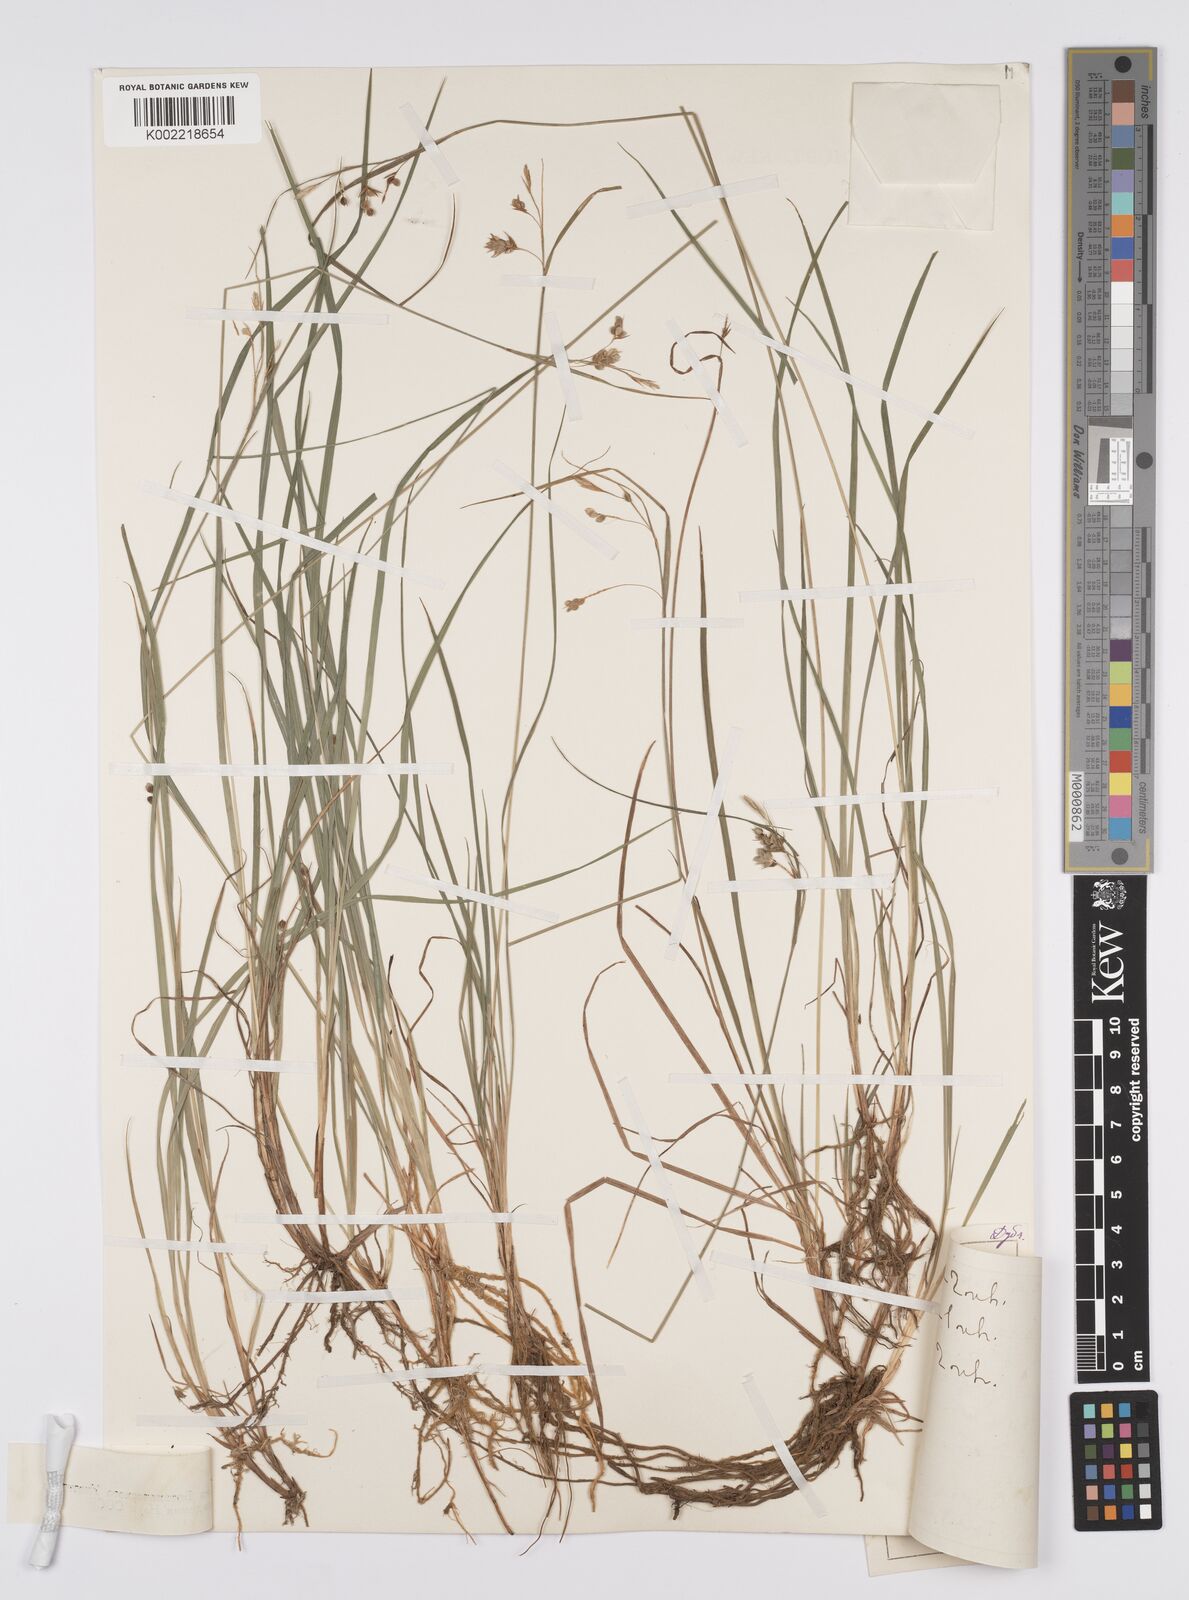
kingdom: Plantae
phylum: Tracheophyta
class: Liliopsida
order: Poales
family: Cyperaceae
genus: Carex
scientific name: Carex magellanica
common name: Bog sedge
